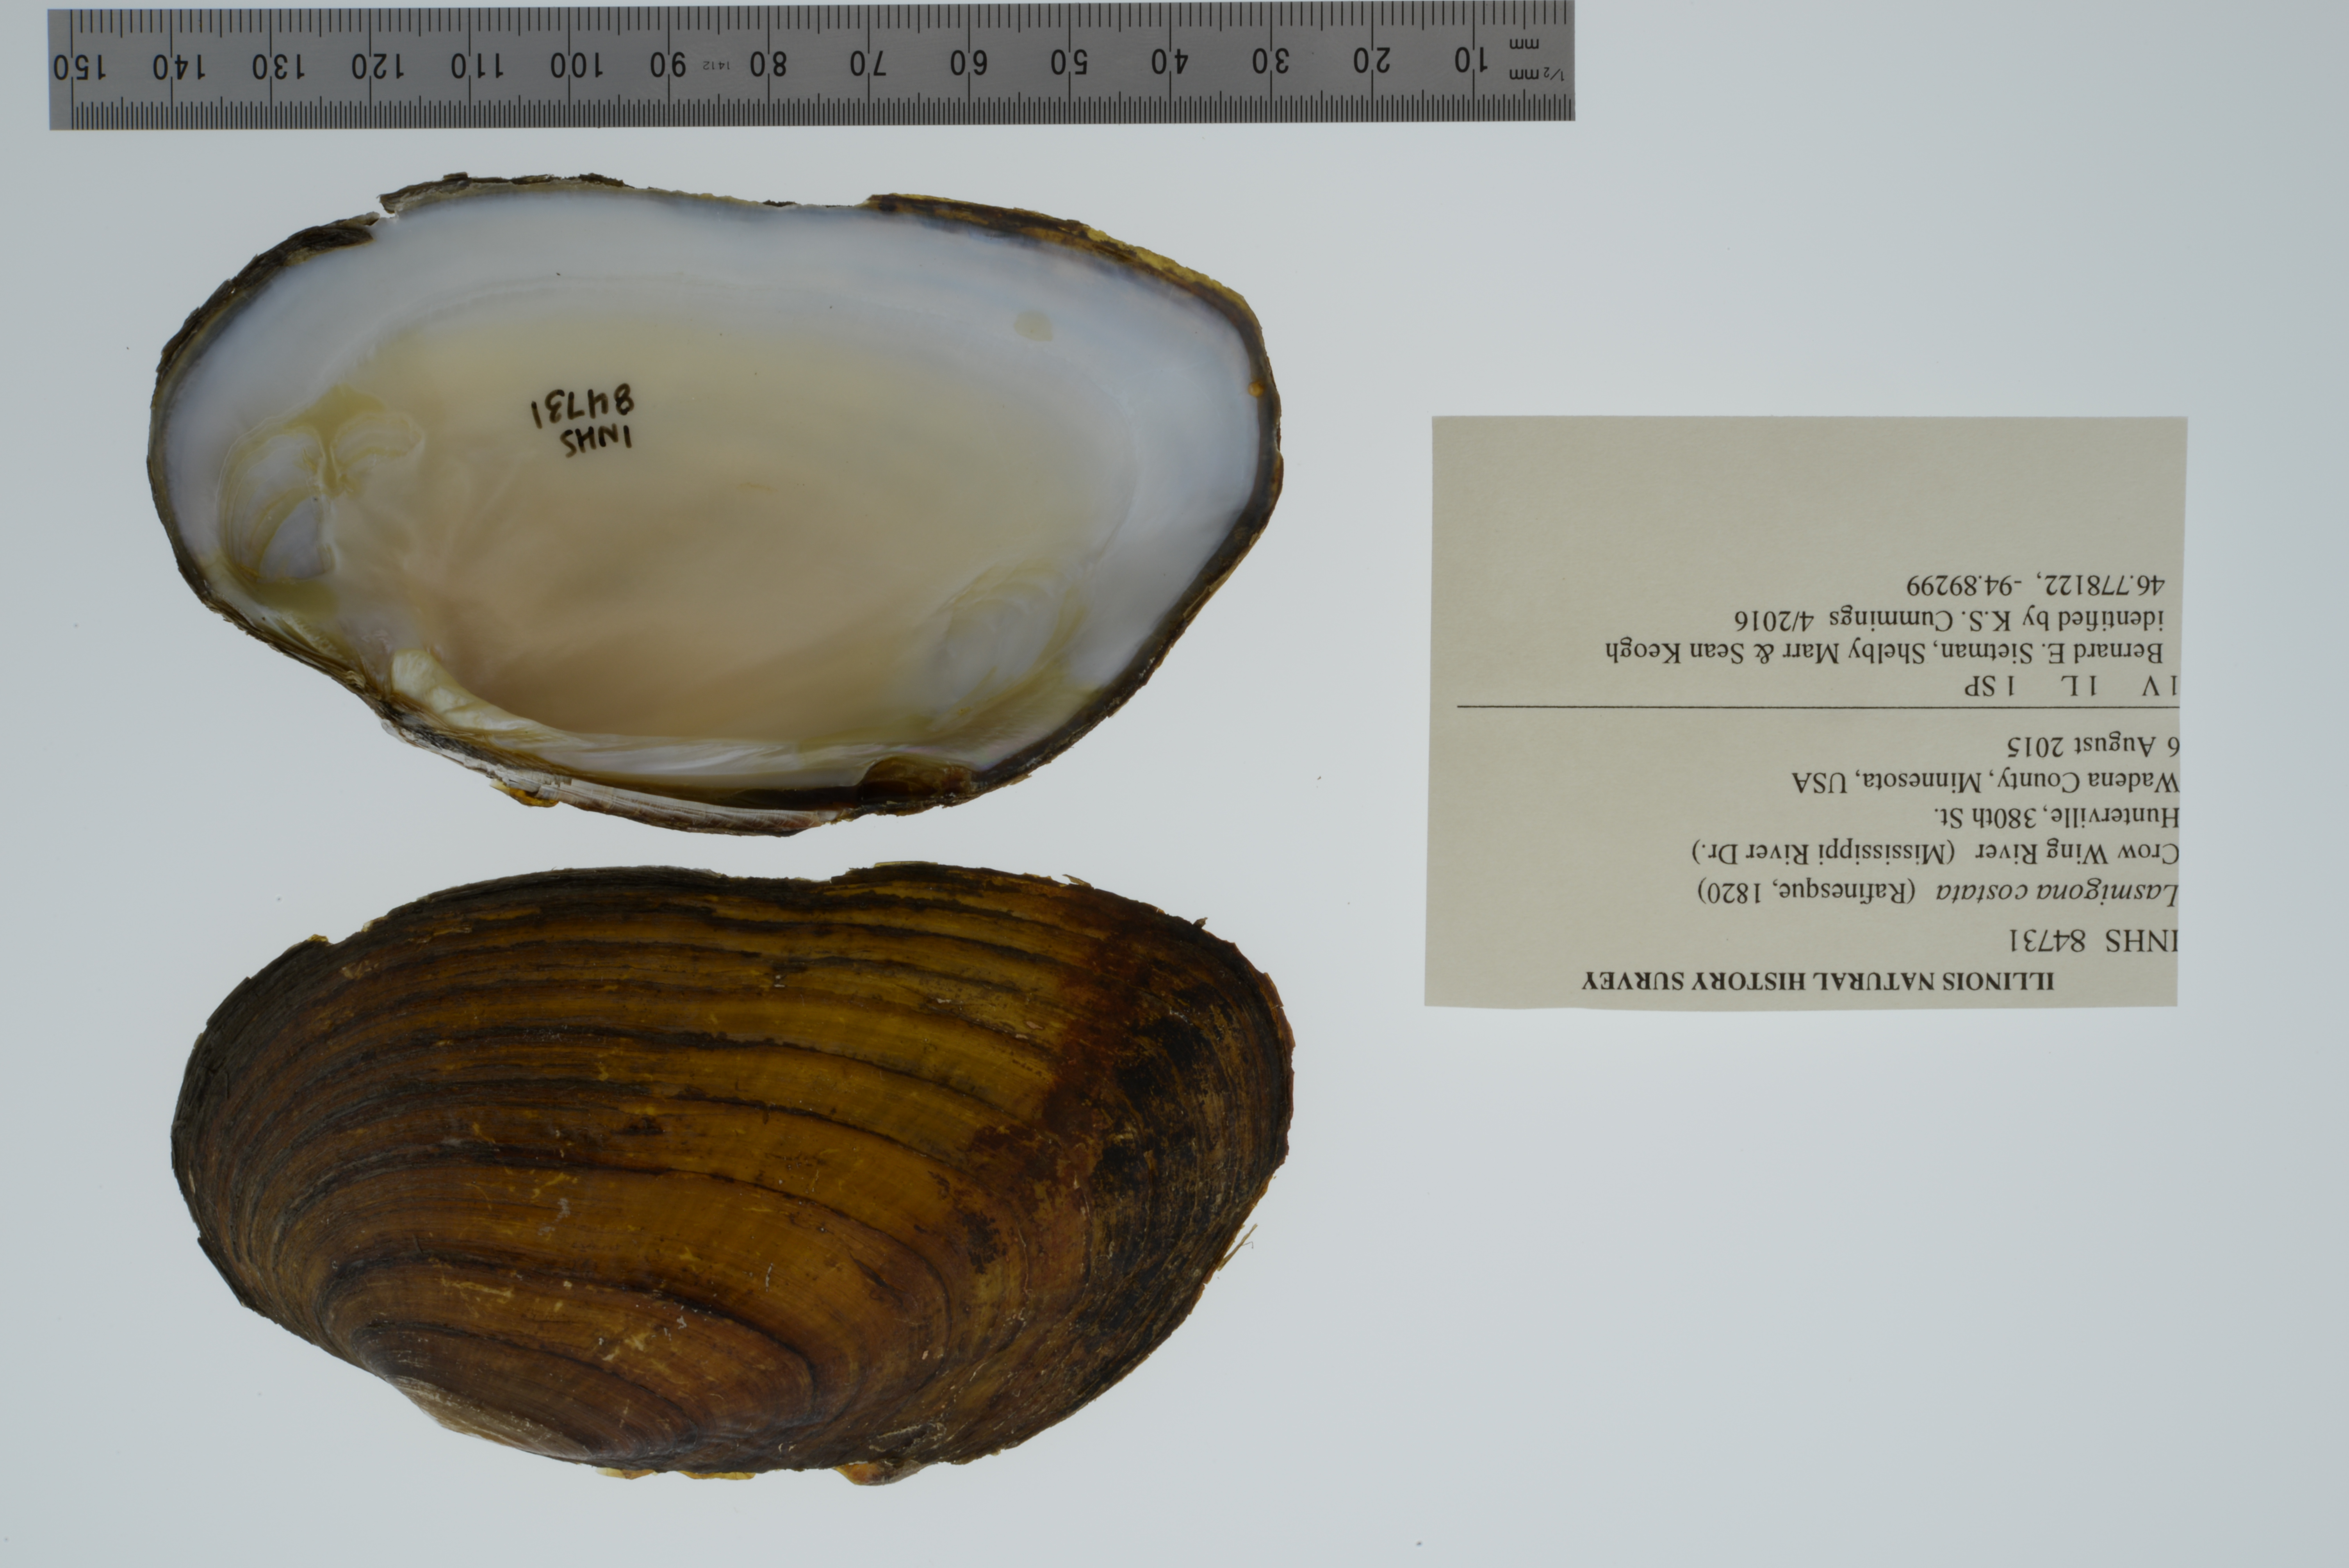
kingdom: Animalia
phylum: Mollusca
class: Bivalvia
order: Unionida
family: Unionidae
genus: Lasmigona
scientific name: Lasmigona costata
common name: Flutedshell
